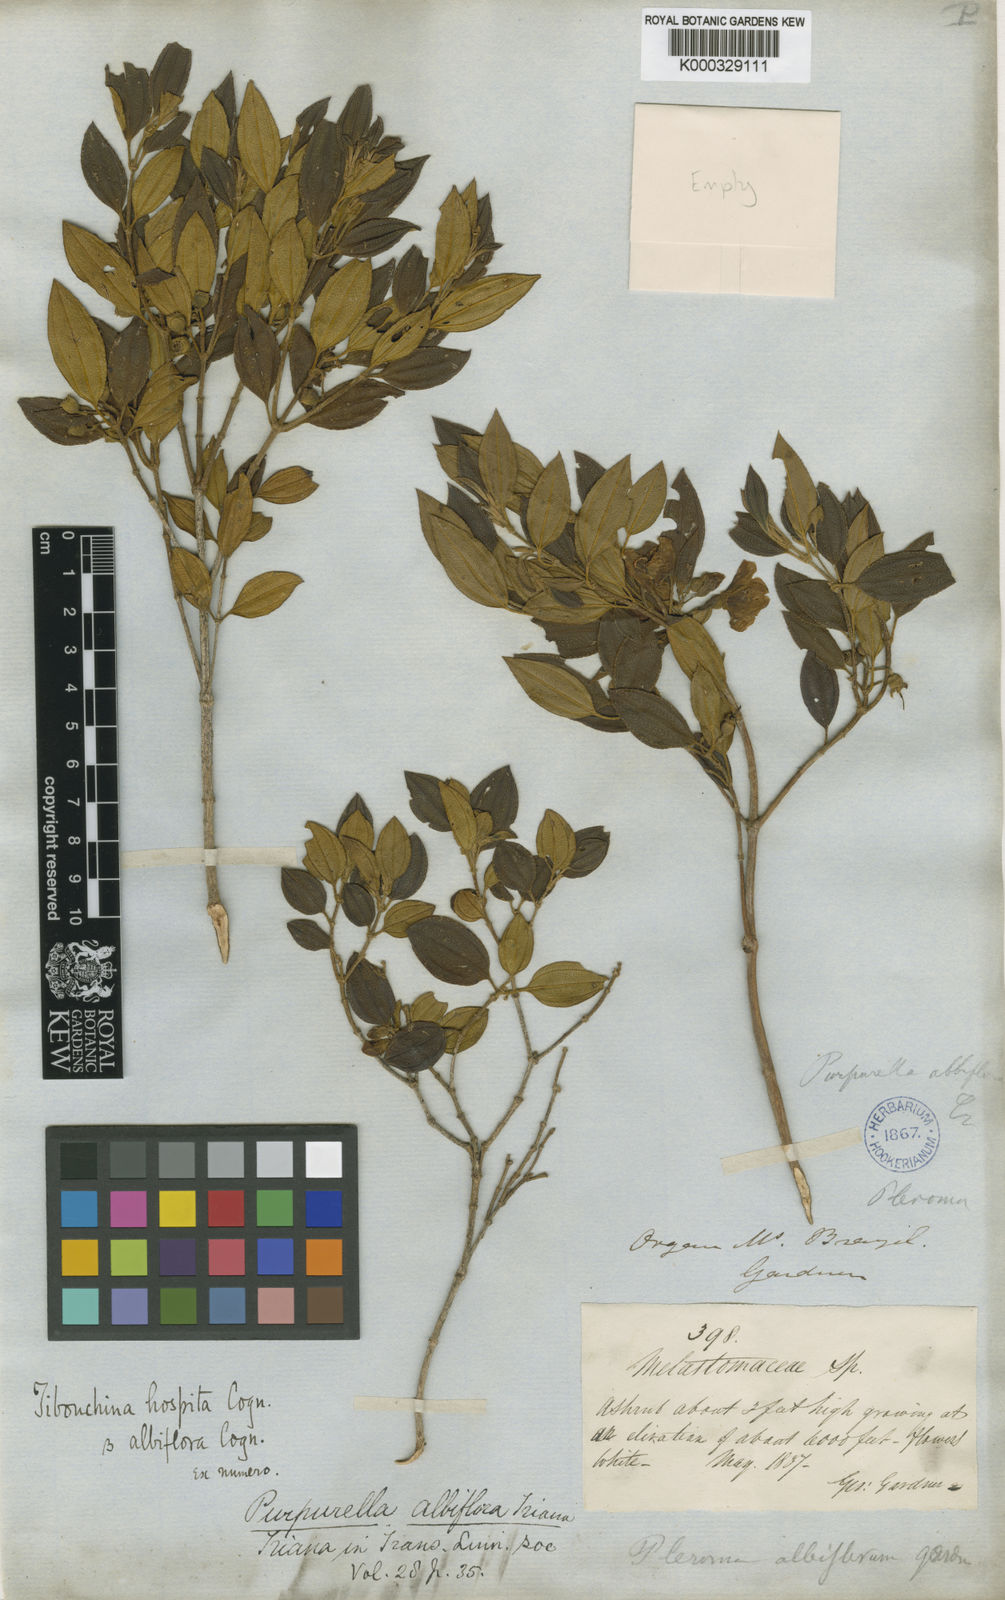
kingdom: Plantae
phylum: Tracheophyta
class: Magnoliopsida
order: Myrtales
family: Melastomataceae
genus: Pleroma
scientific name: Pleroma hospitum
